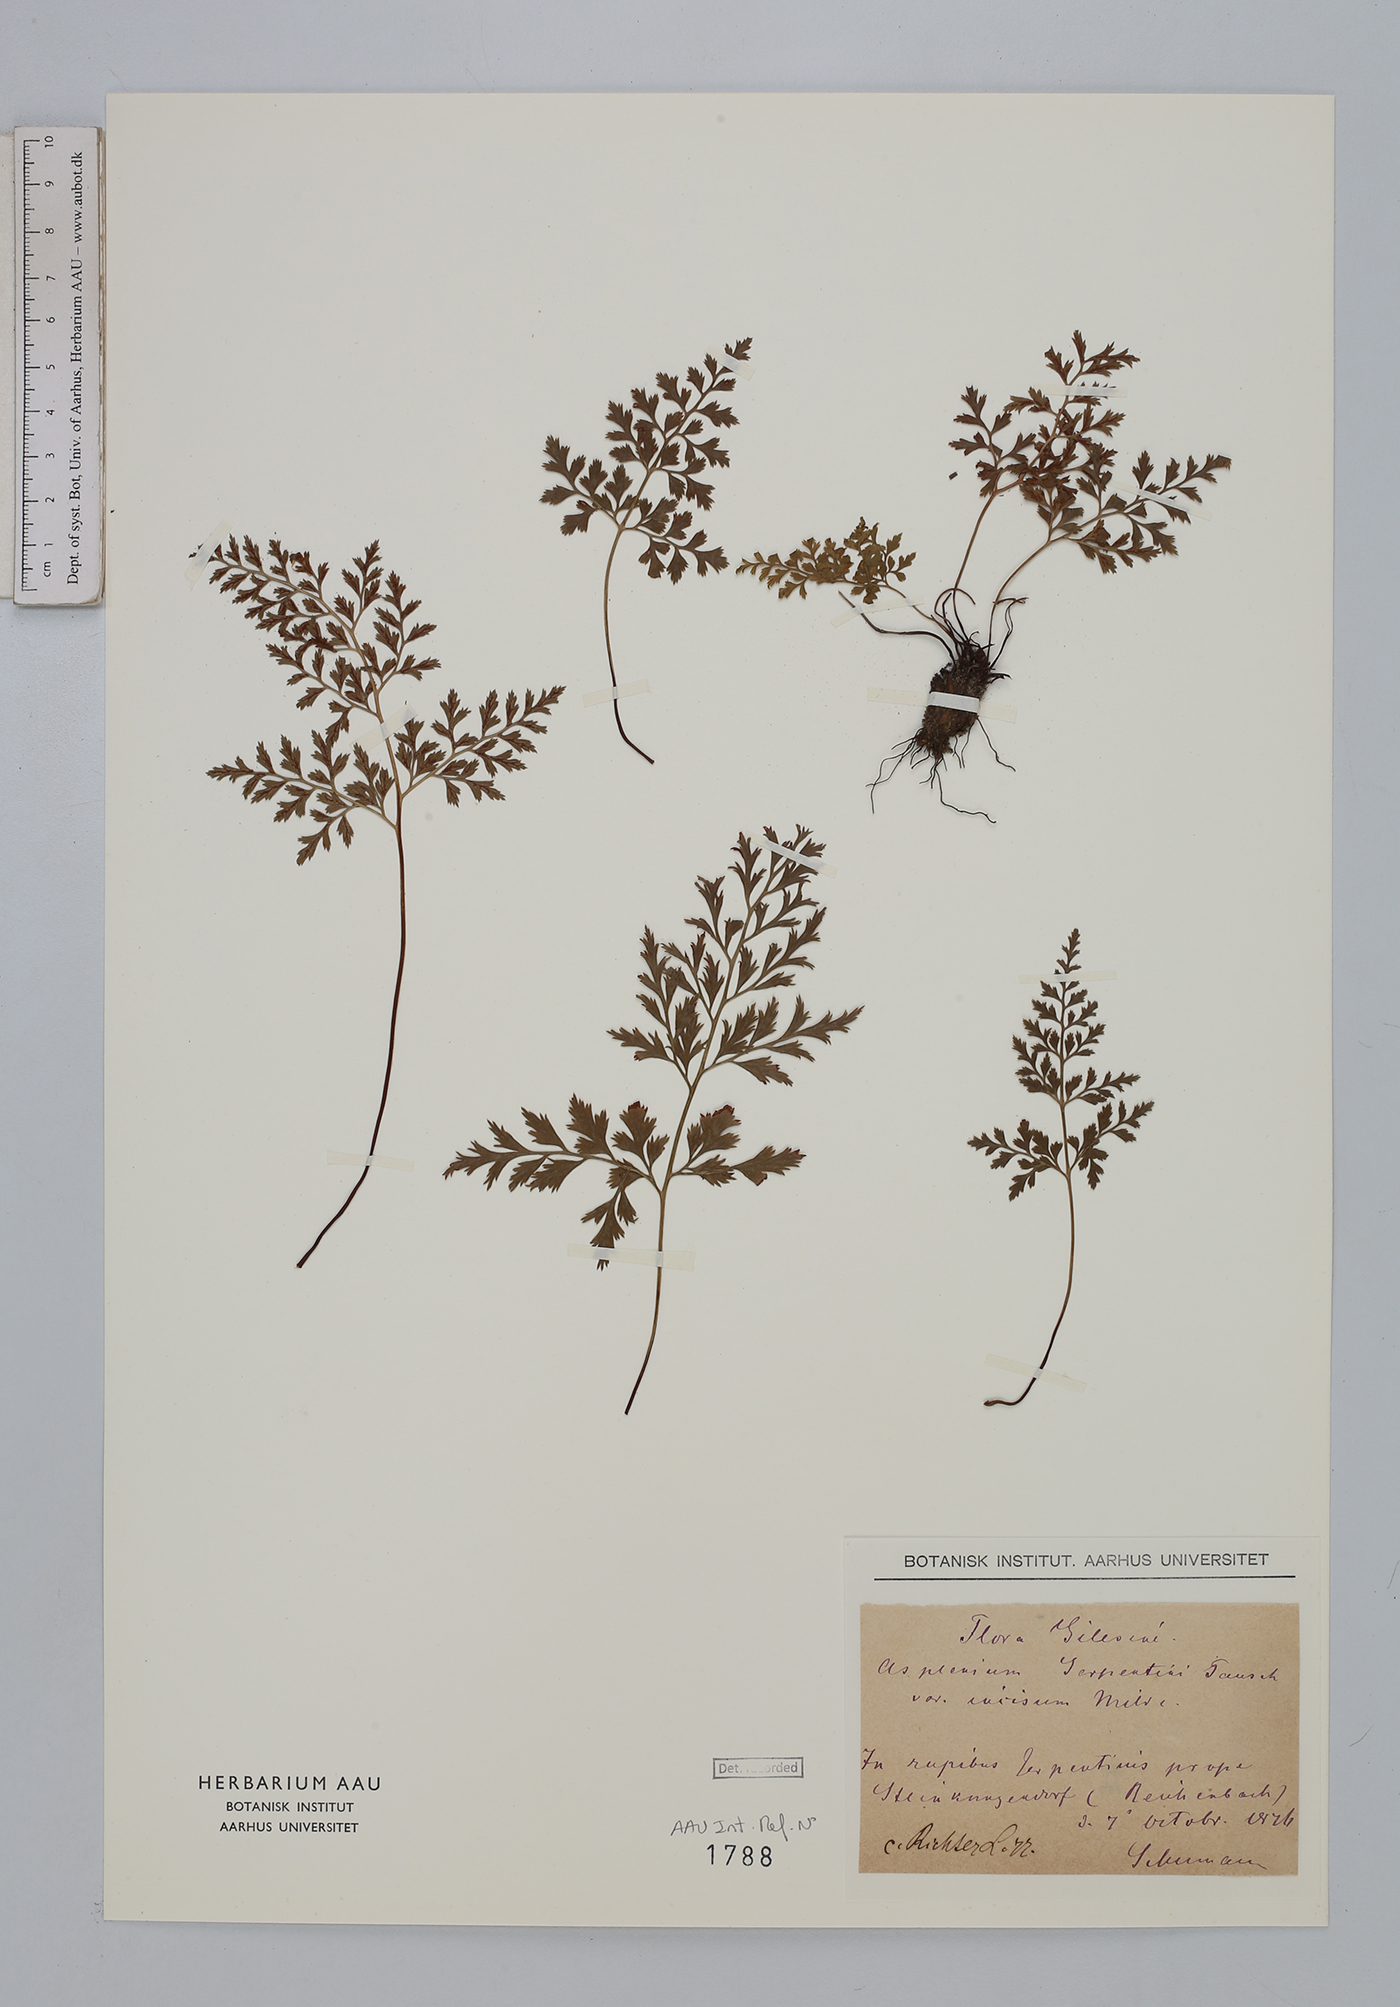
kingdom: Plantae
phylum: Tracheophyta
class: Polypodiopsida
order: Polypodiales
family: Aspleniaceae
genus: Asplenium
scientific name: Asplenium cuneifolium
